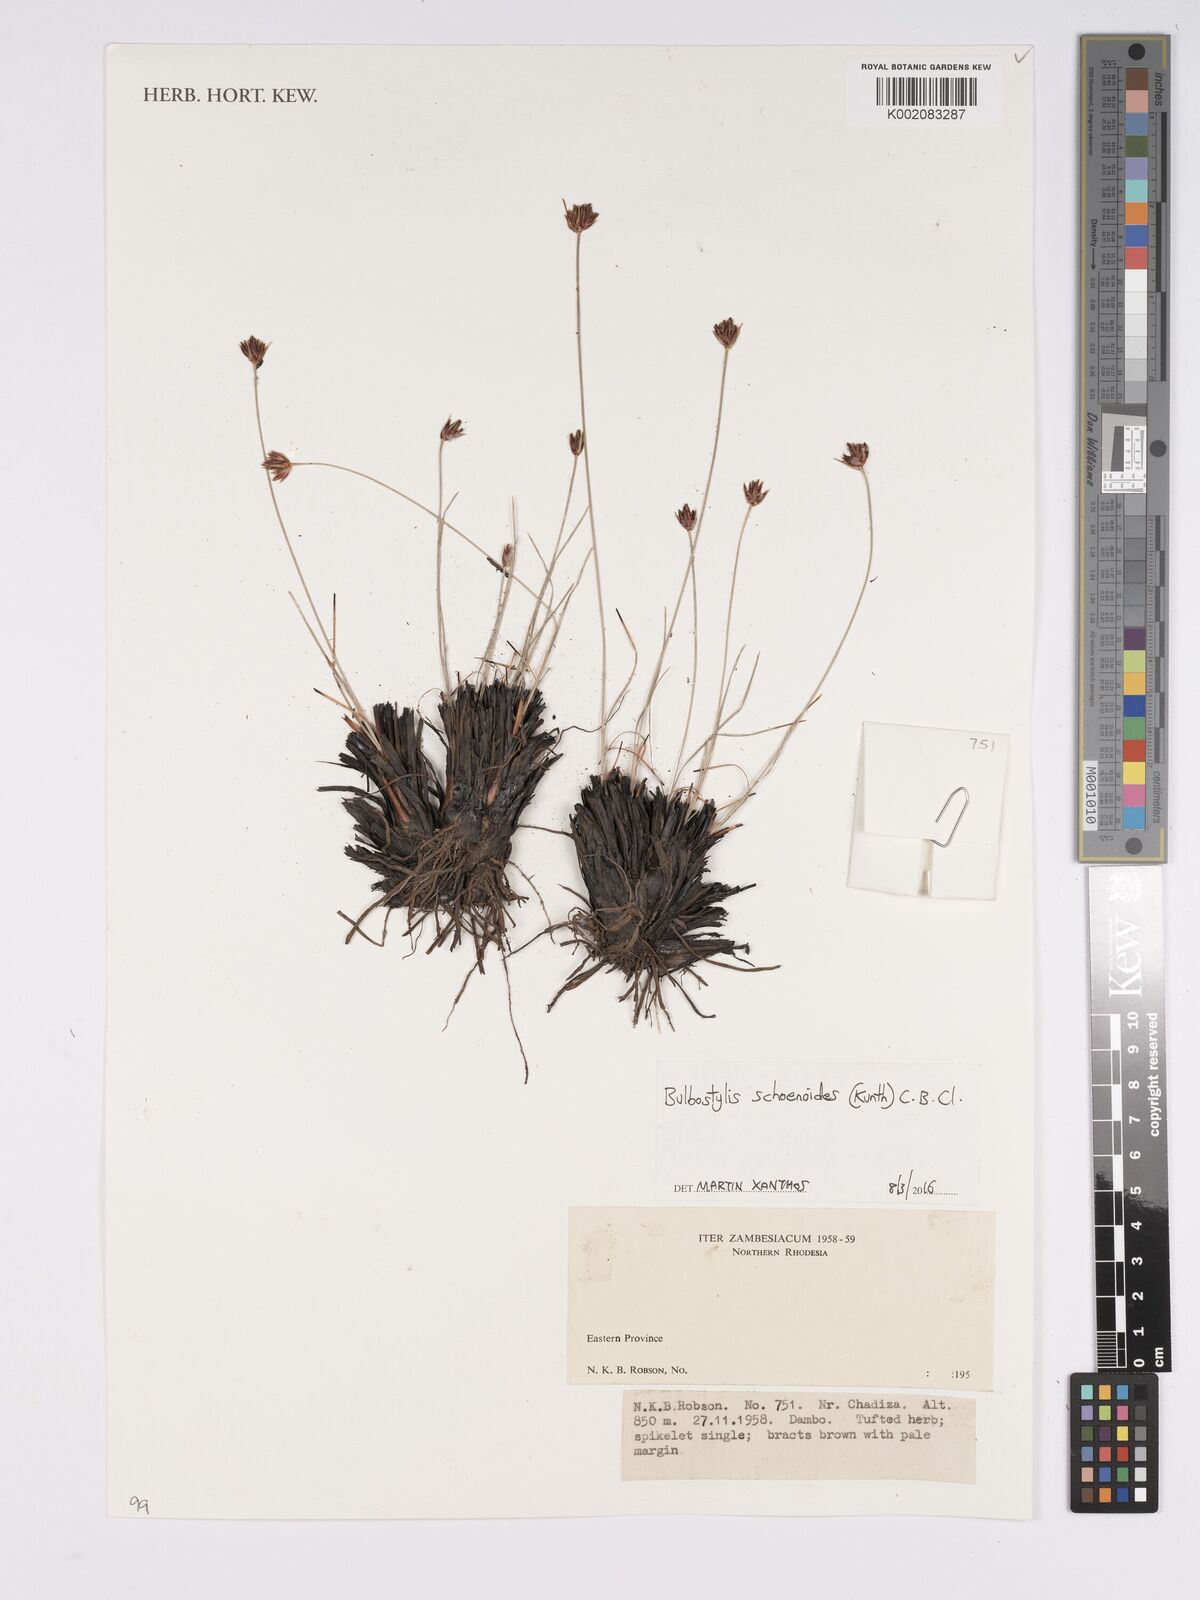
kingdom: Plantae
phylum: Tracheophyta
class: Liliopsida
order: Poales
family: Cyperaceae
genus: Bulbostylis
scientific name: Bulbostylis schoenoides
